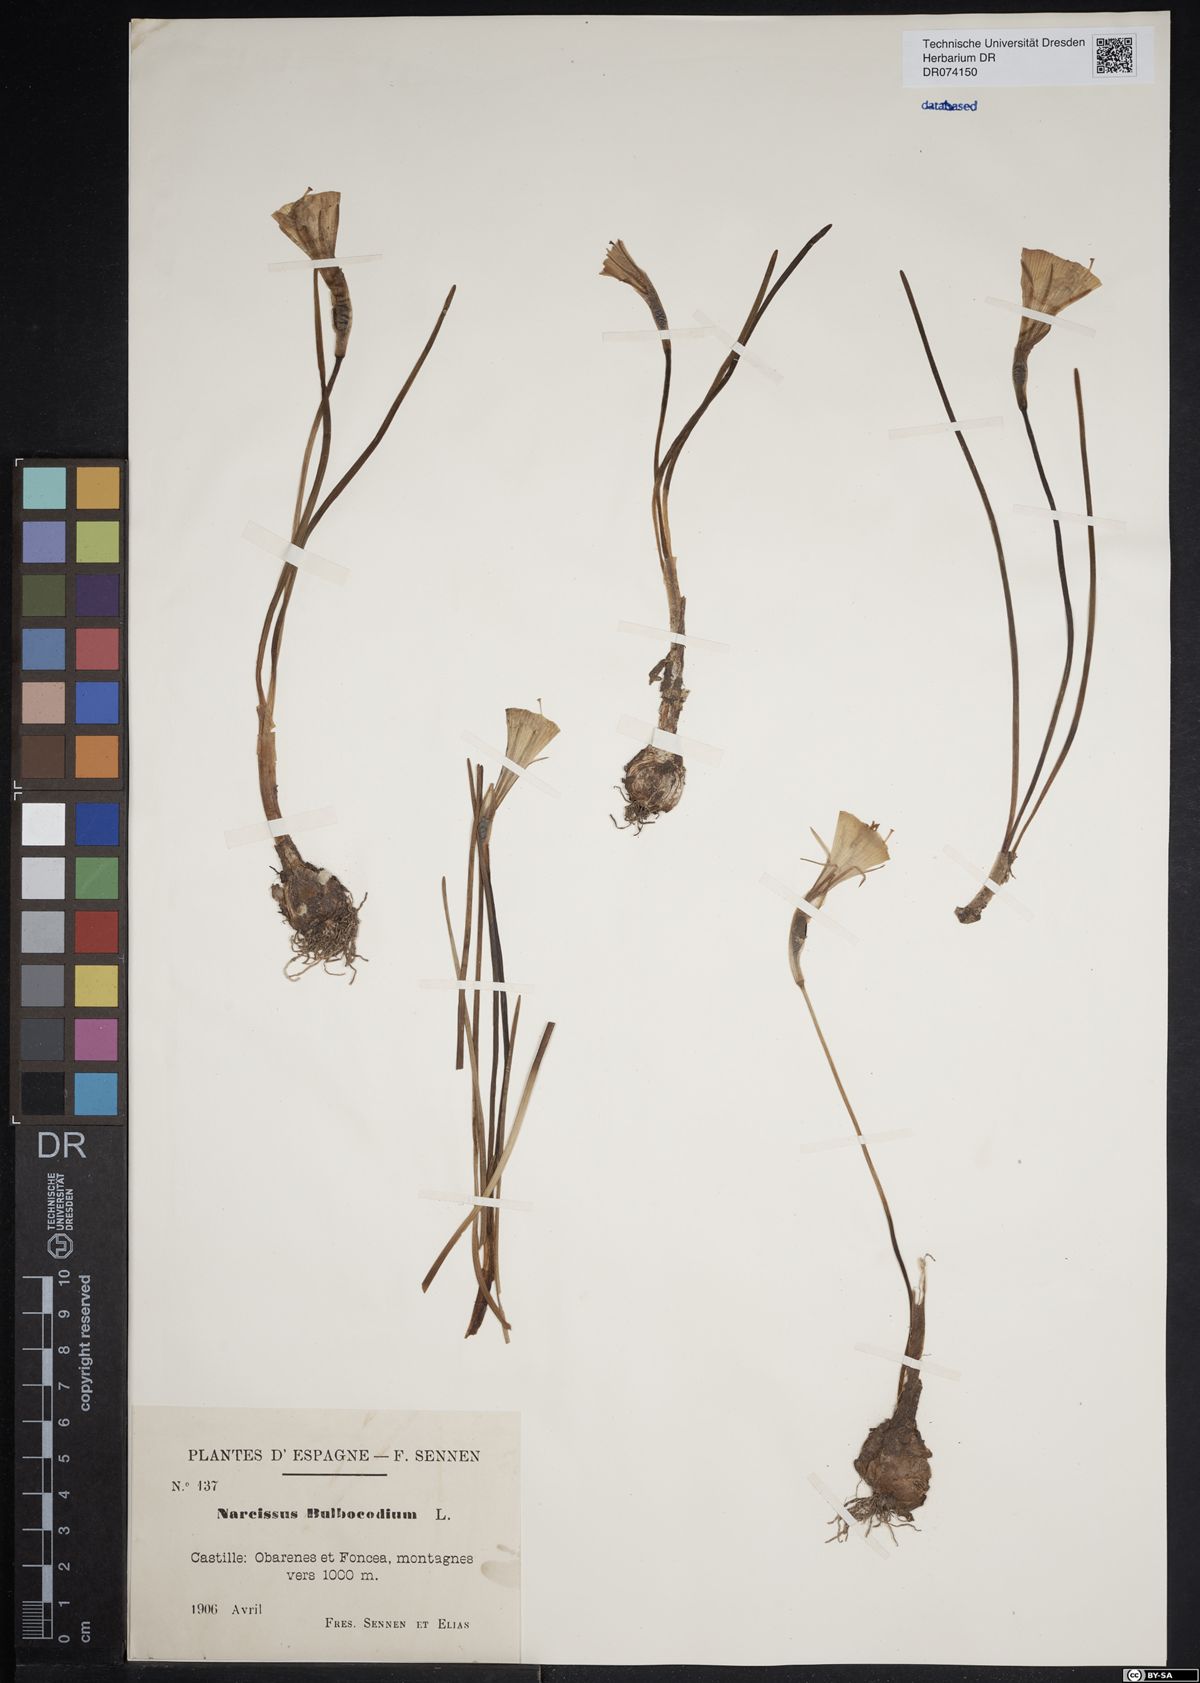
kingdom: Plantae
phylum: Tracheophyta
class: Liliopsida
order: Asparagales
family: Amaryllidaceae
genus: Narcissus
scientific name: Narcissus bulbocodium
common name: Hoop-petticoat daffodil
